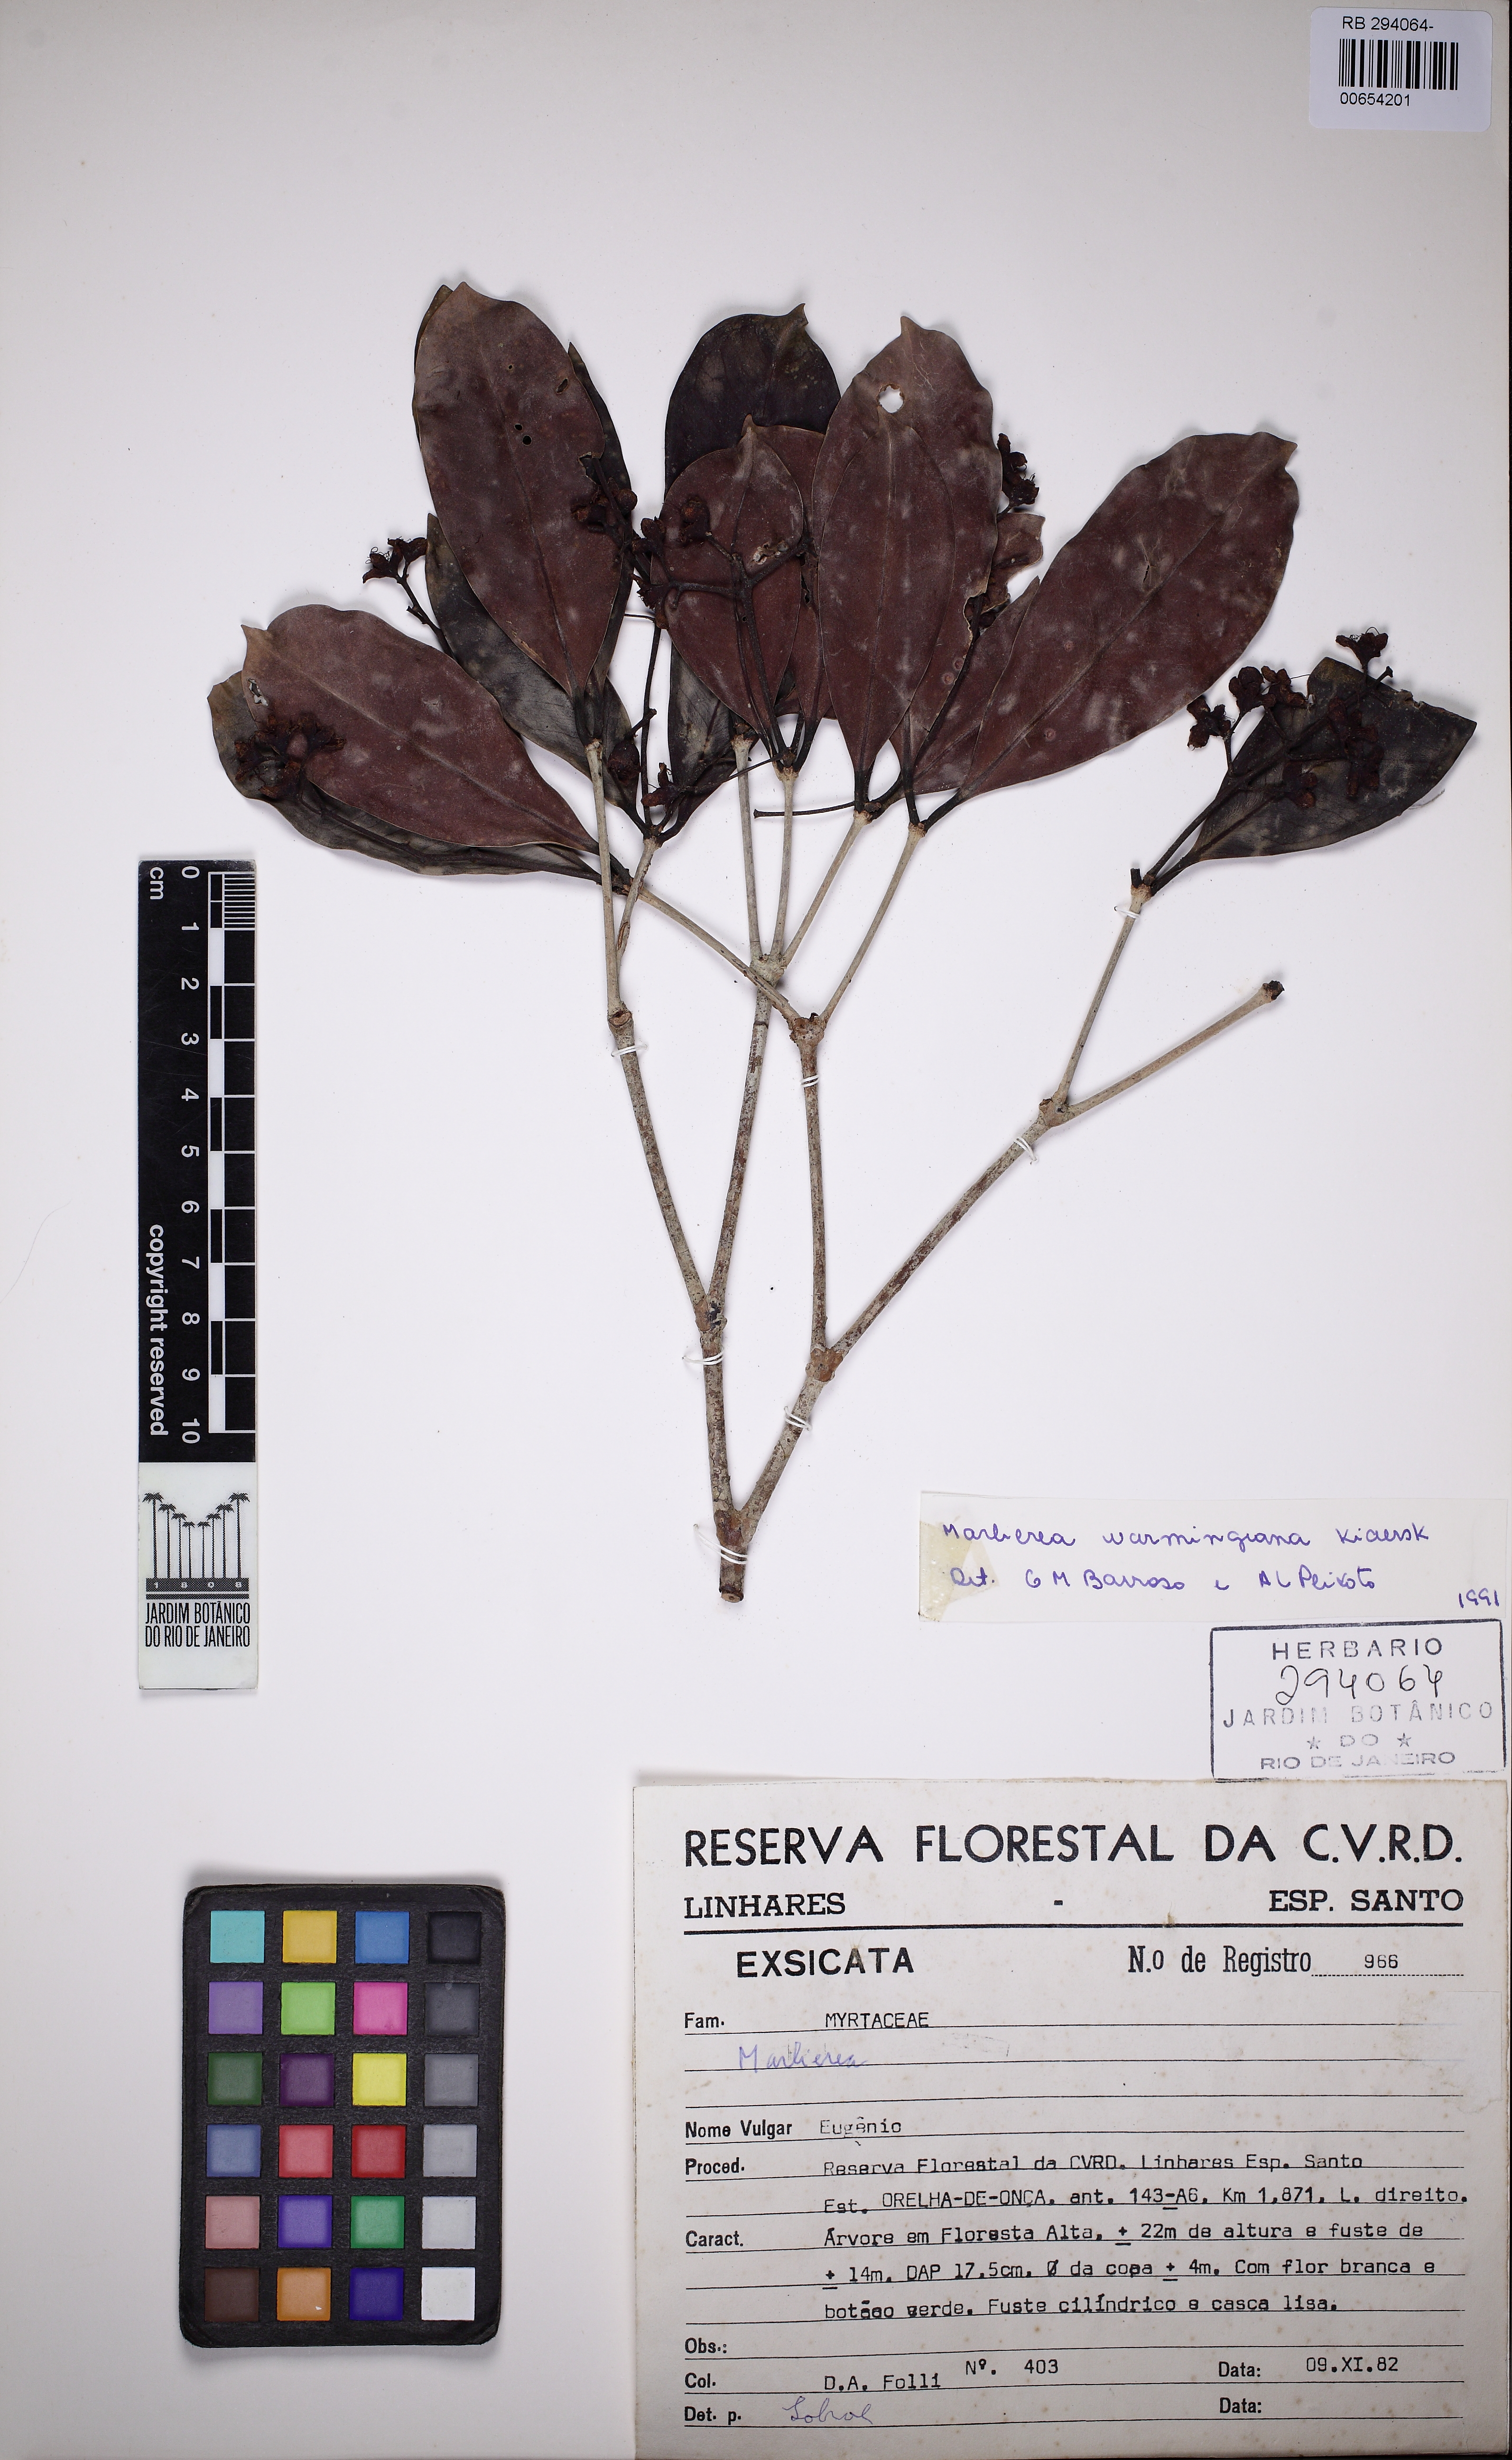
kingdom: Plantae
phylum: Tracheophyta
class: Magnoliopsida
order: Myrtales
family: Myrtaceae
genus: Myrcia
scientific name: Myrcia neoobscura
